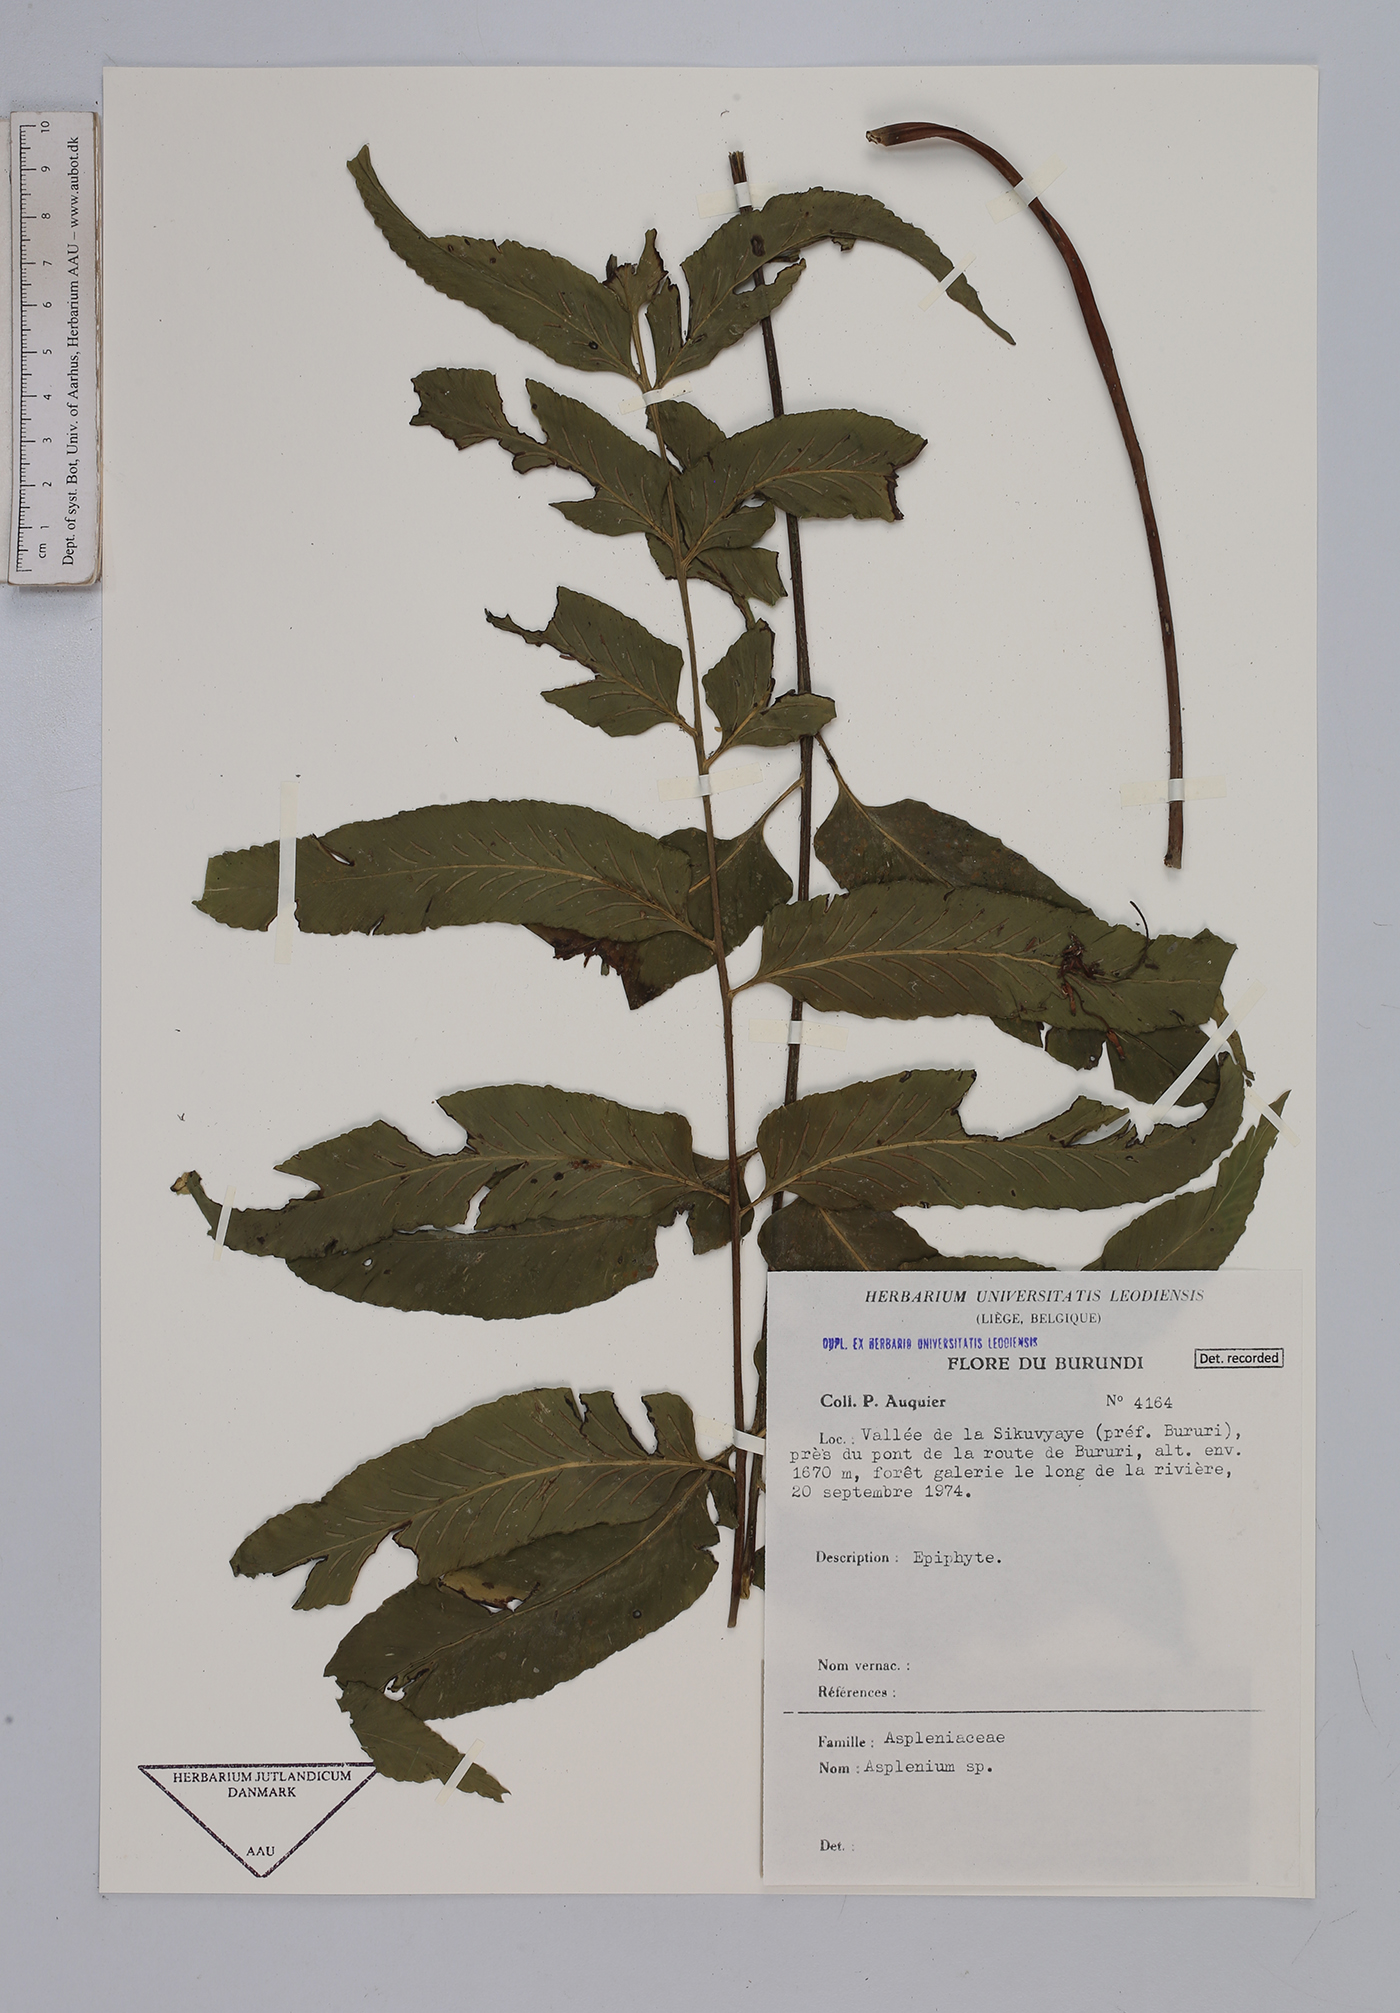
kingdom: Plantae
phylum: Tracheophyta
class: Polypodiopsida
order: Polypodiales
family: Aspleniaceae
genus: Asplenium
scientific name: Asplenium
